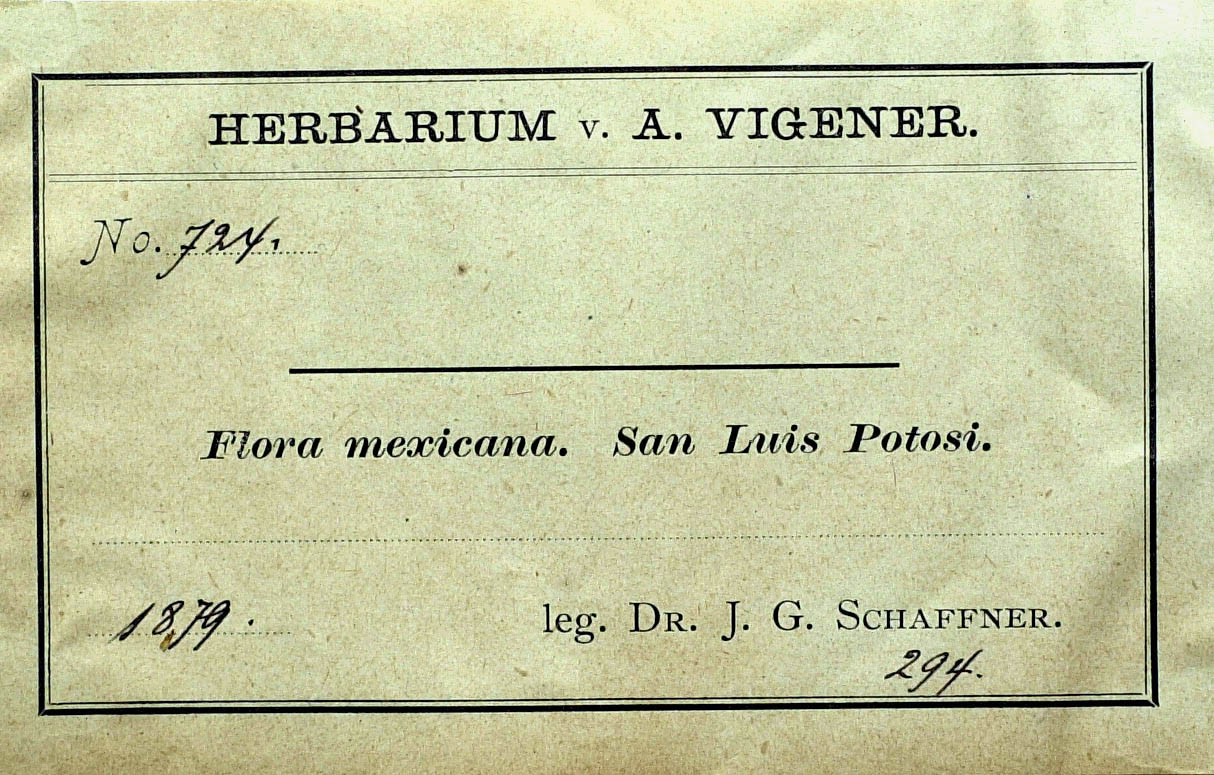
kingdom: Plantae
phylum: Tracheophyta
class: Magnoliopsida
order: Asterales
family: Asteraceae
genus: Psacalium
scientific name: Psacalium radulifolium
